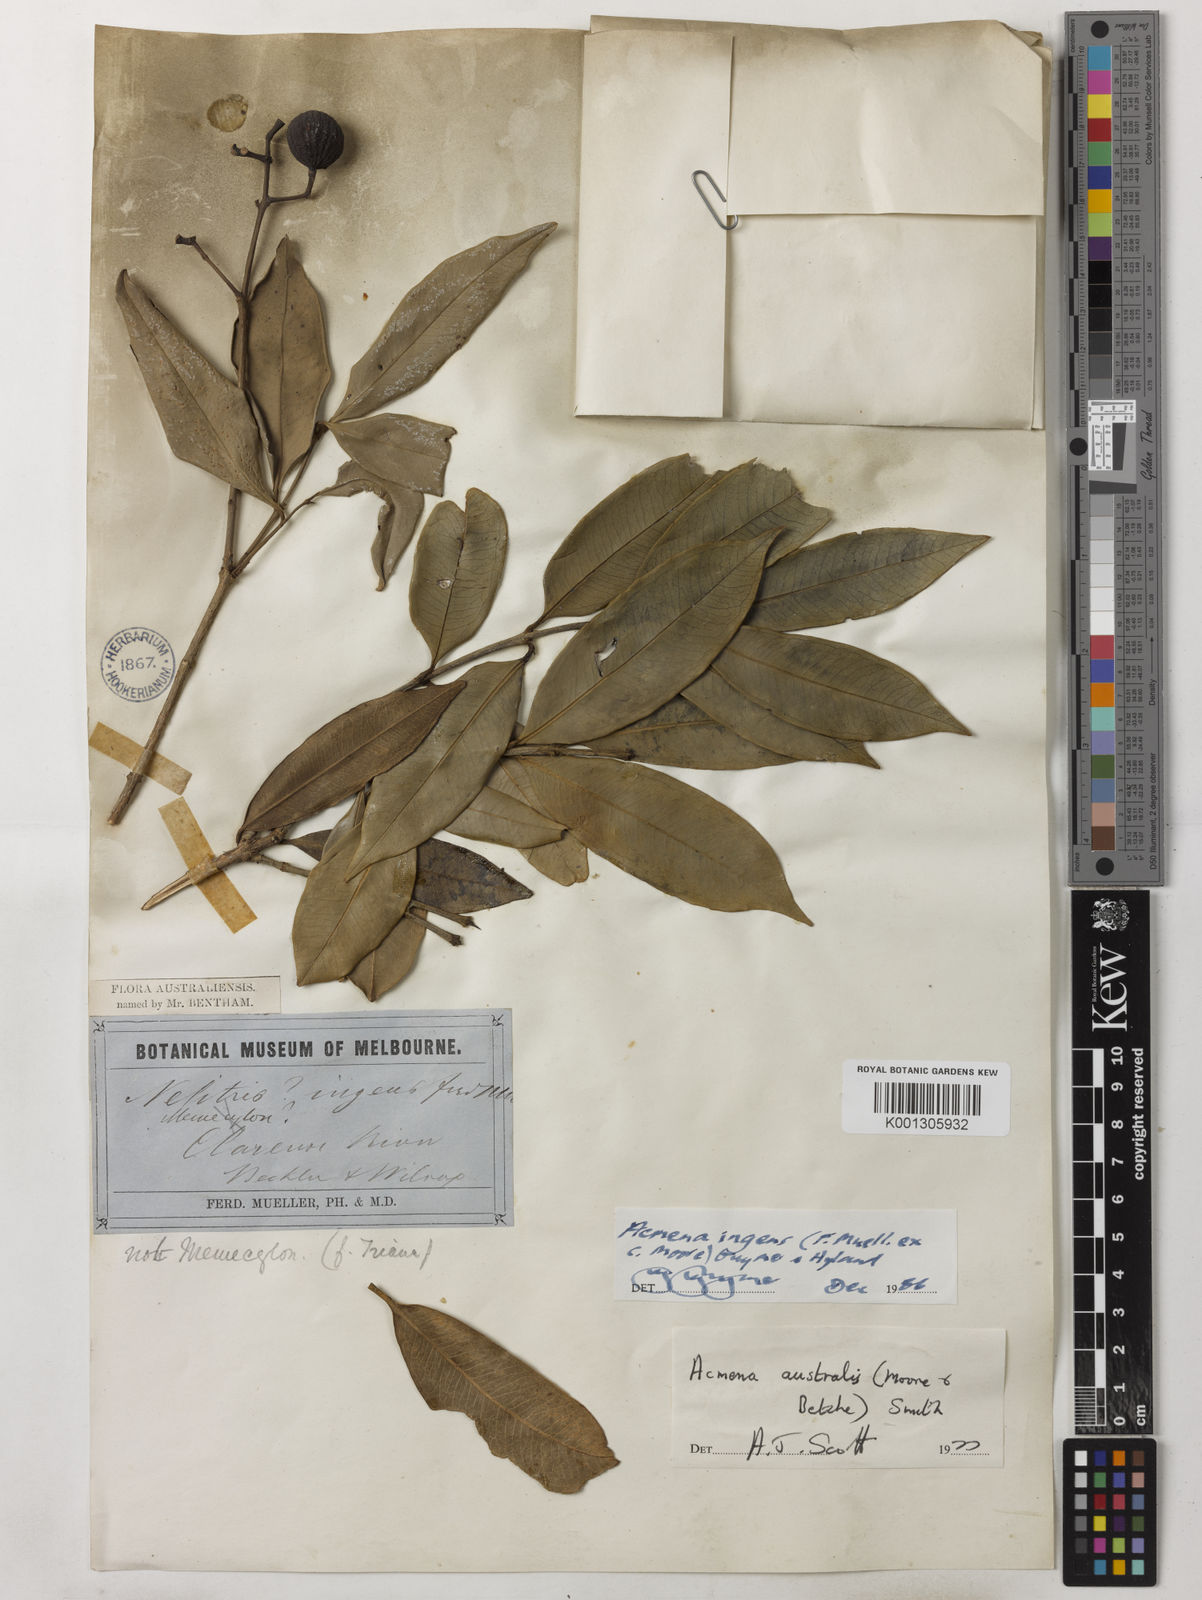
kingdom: Plantae
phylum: Tracheophyta
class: Magnoliopsida
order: Myrtales
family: Myrtaceae
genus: Syzygium
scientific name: Syzygium ingens
